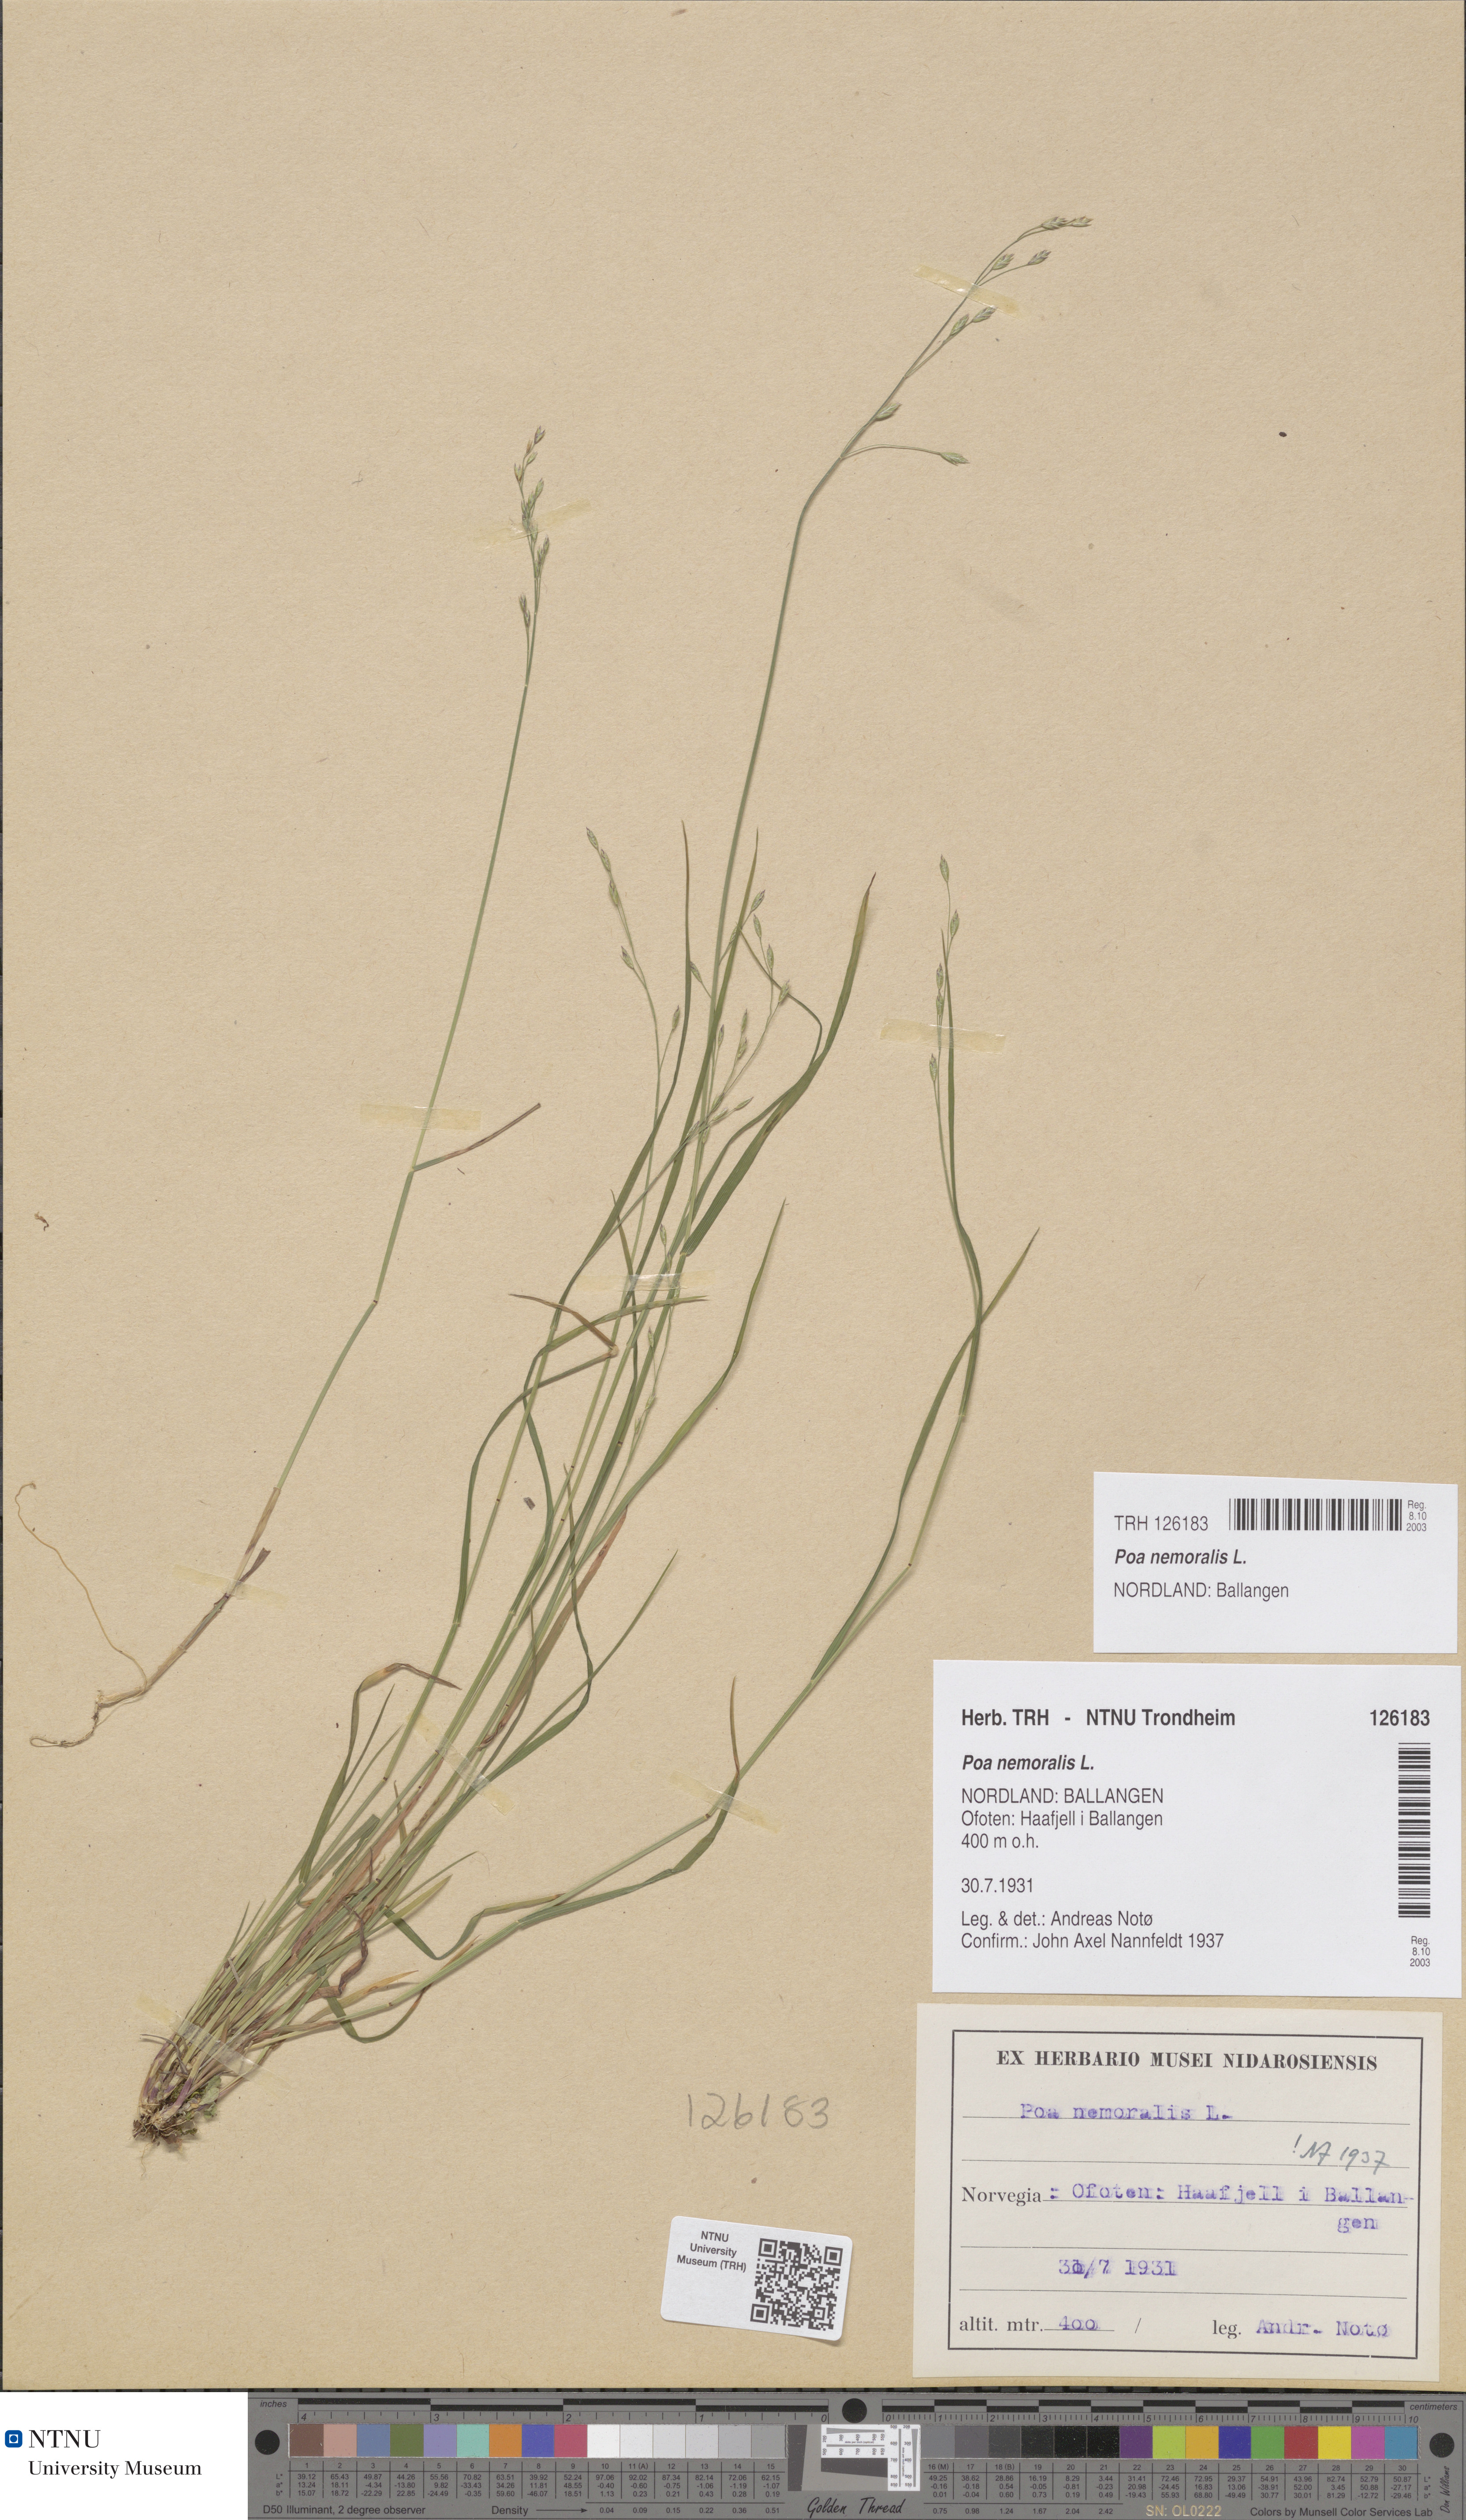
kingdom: Plantae
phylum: Tracheophyta
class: Liliopsida
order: Poales
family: Poaceae
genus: Poa
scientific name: Poa nemoralis
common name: Wood bluegrass
